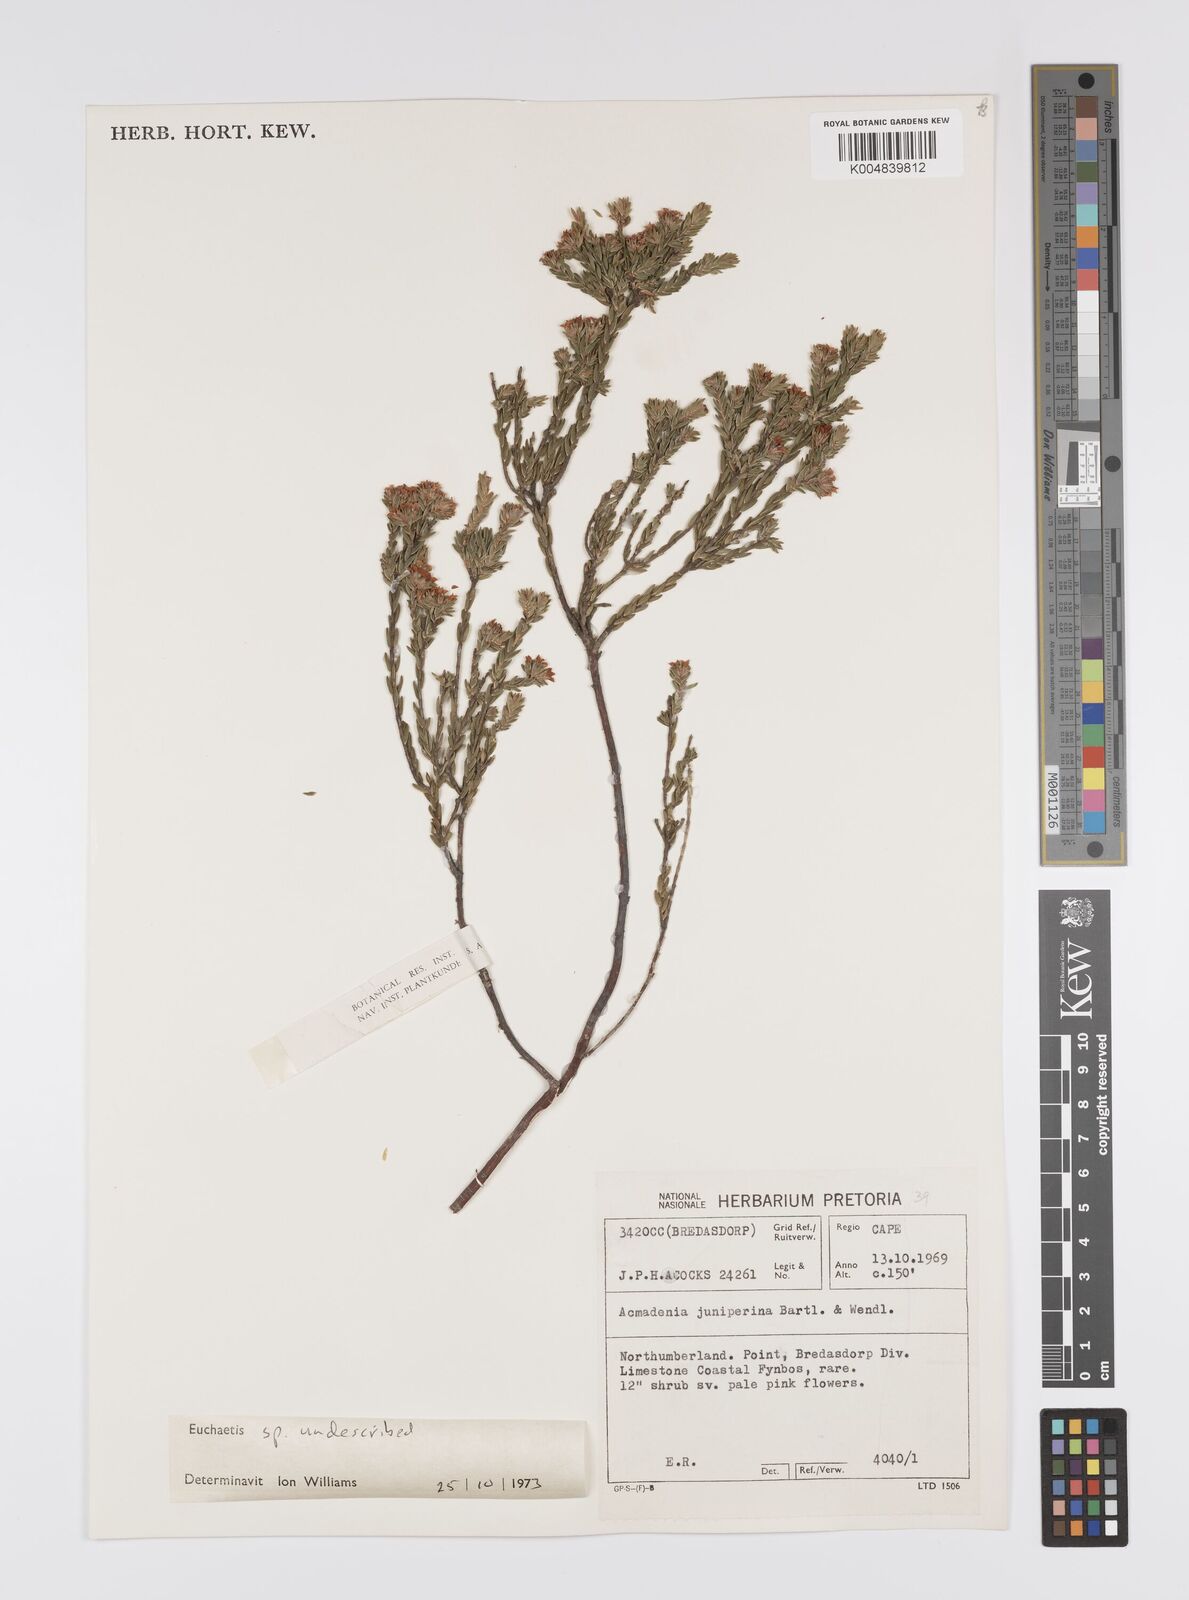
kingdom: Plantae
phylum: Tracheophyta
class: Magnoliopsida
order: Sapindales
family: Rutaceae
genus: Euchaetis
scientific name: Euchaetis
